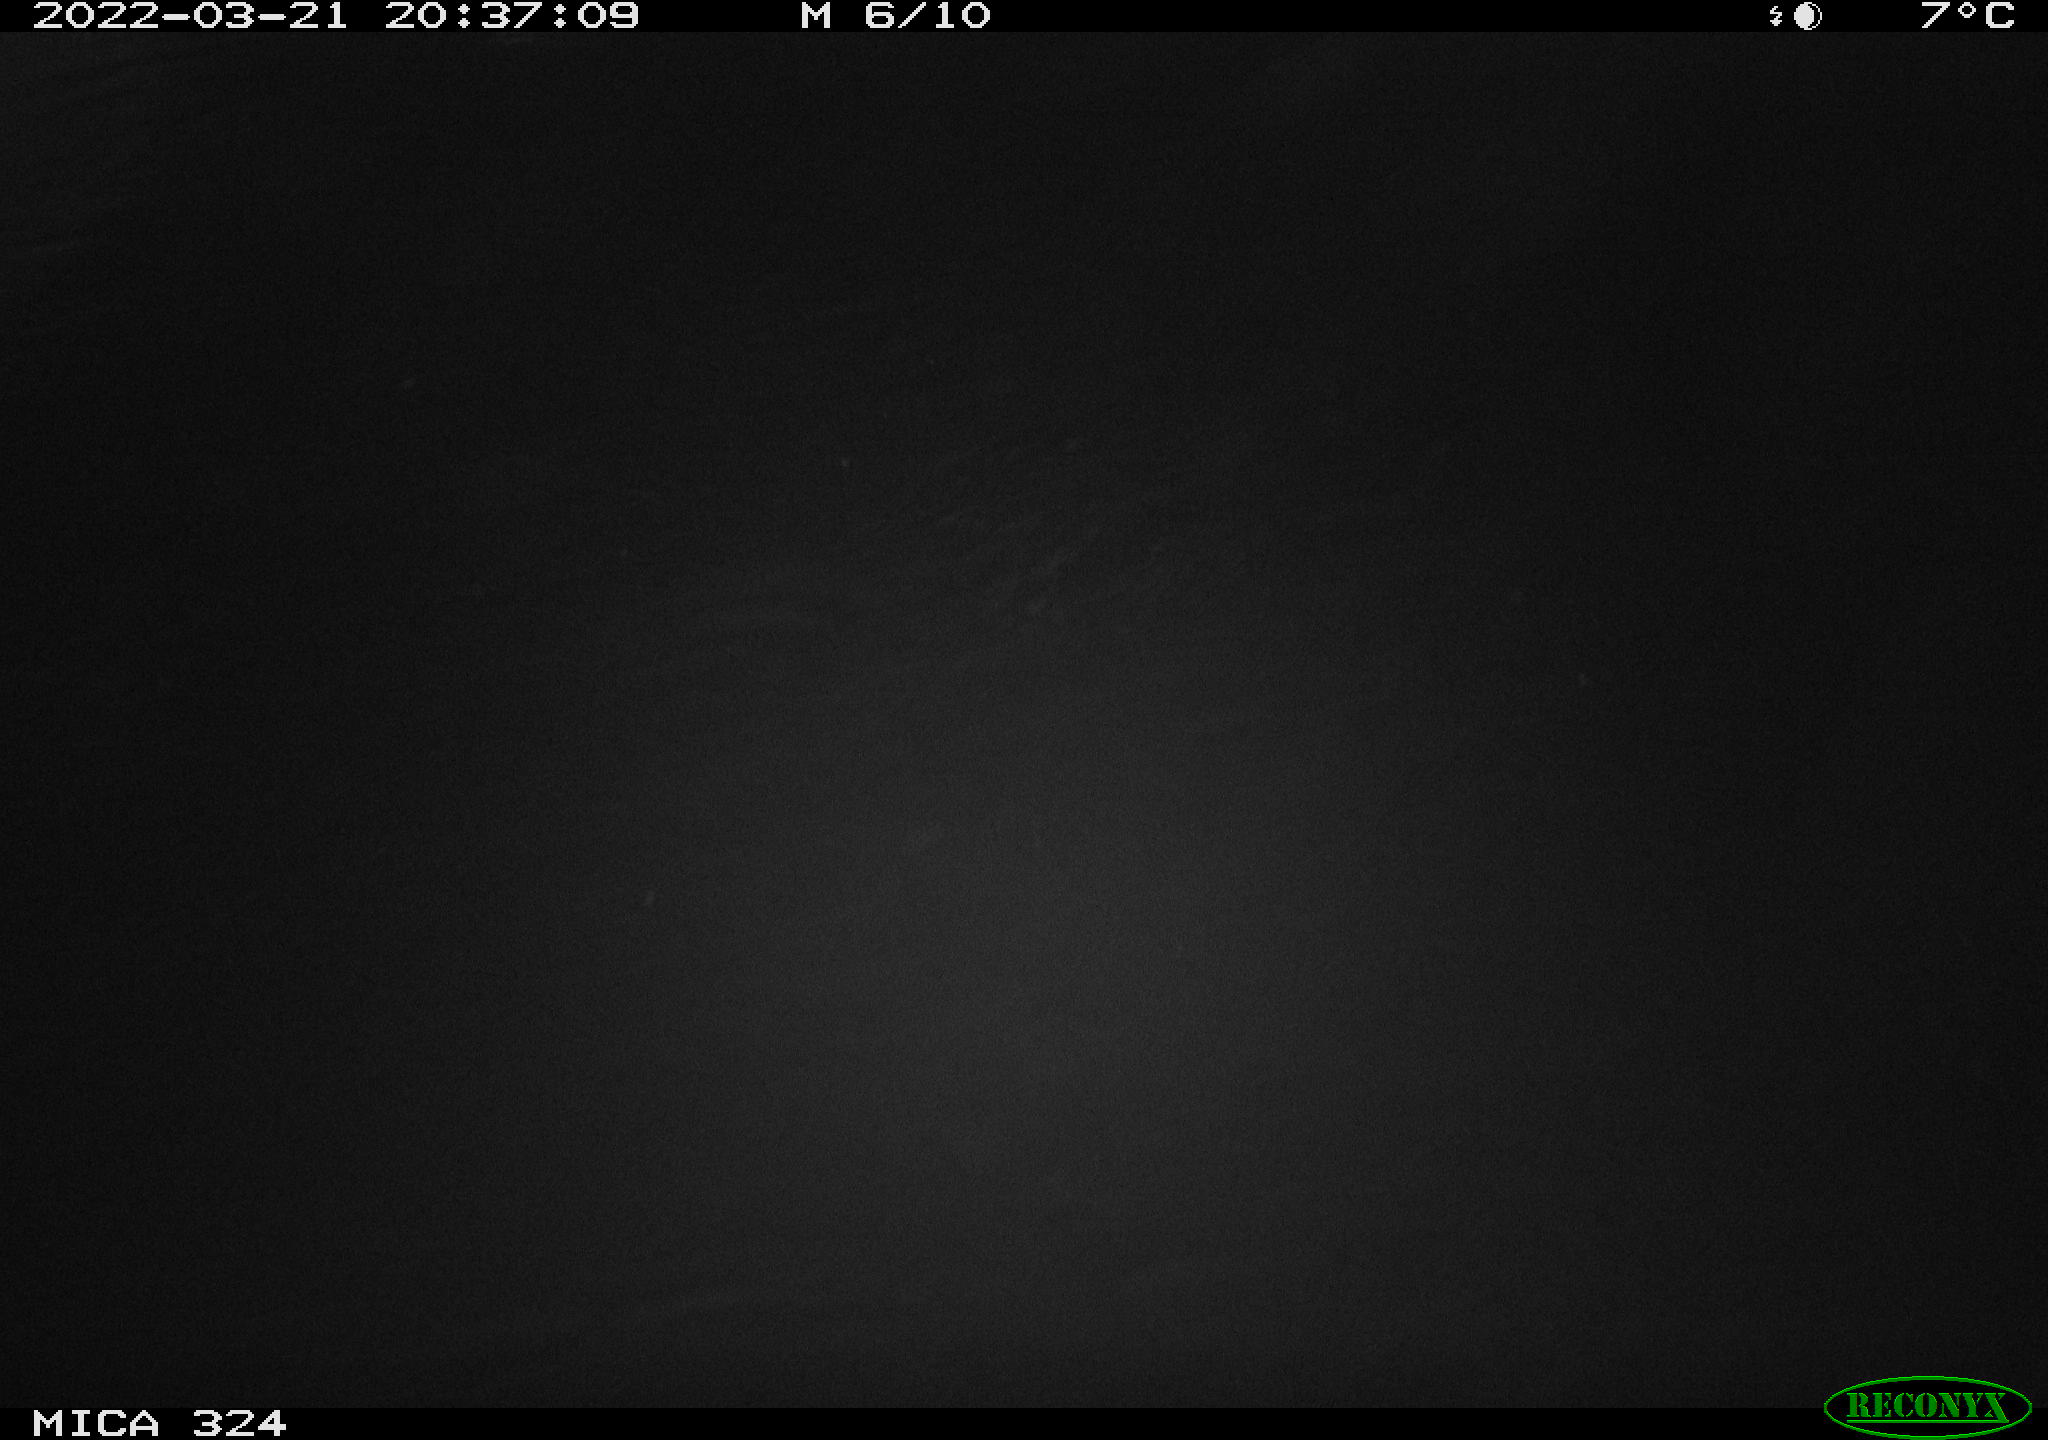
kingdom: Animalia
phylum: Chordata
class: Mammalia
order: Rodentia
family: Cricetidae
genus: Ondatra
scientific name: Ondatra zibethicus
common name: Muskrat
